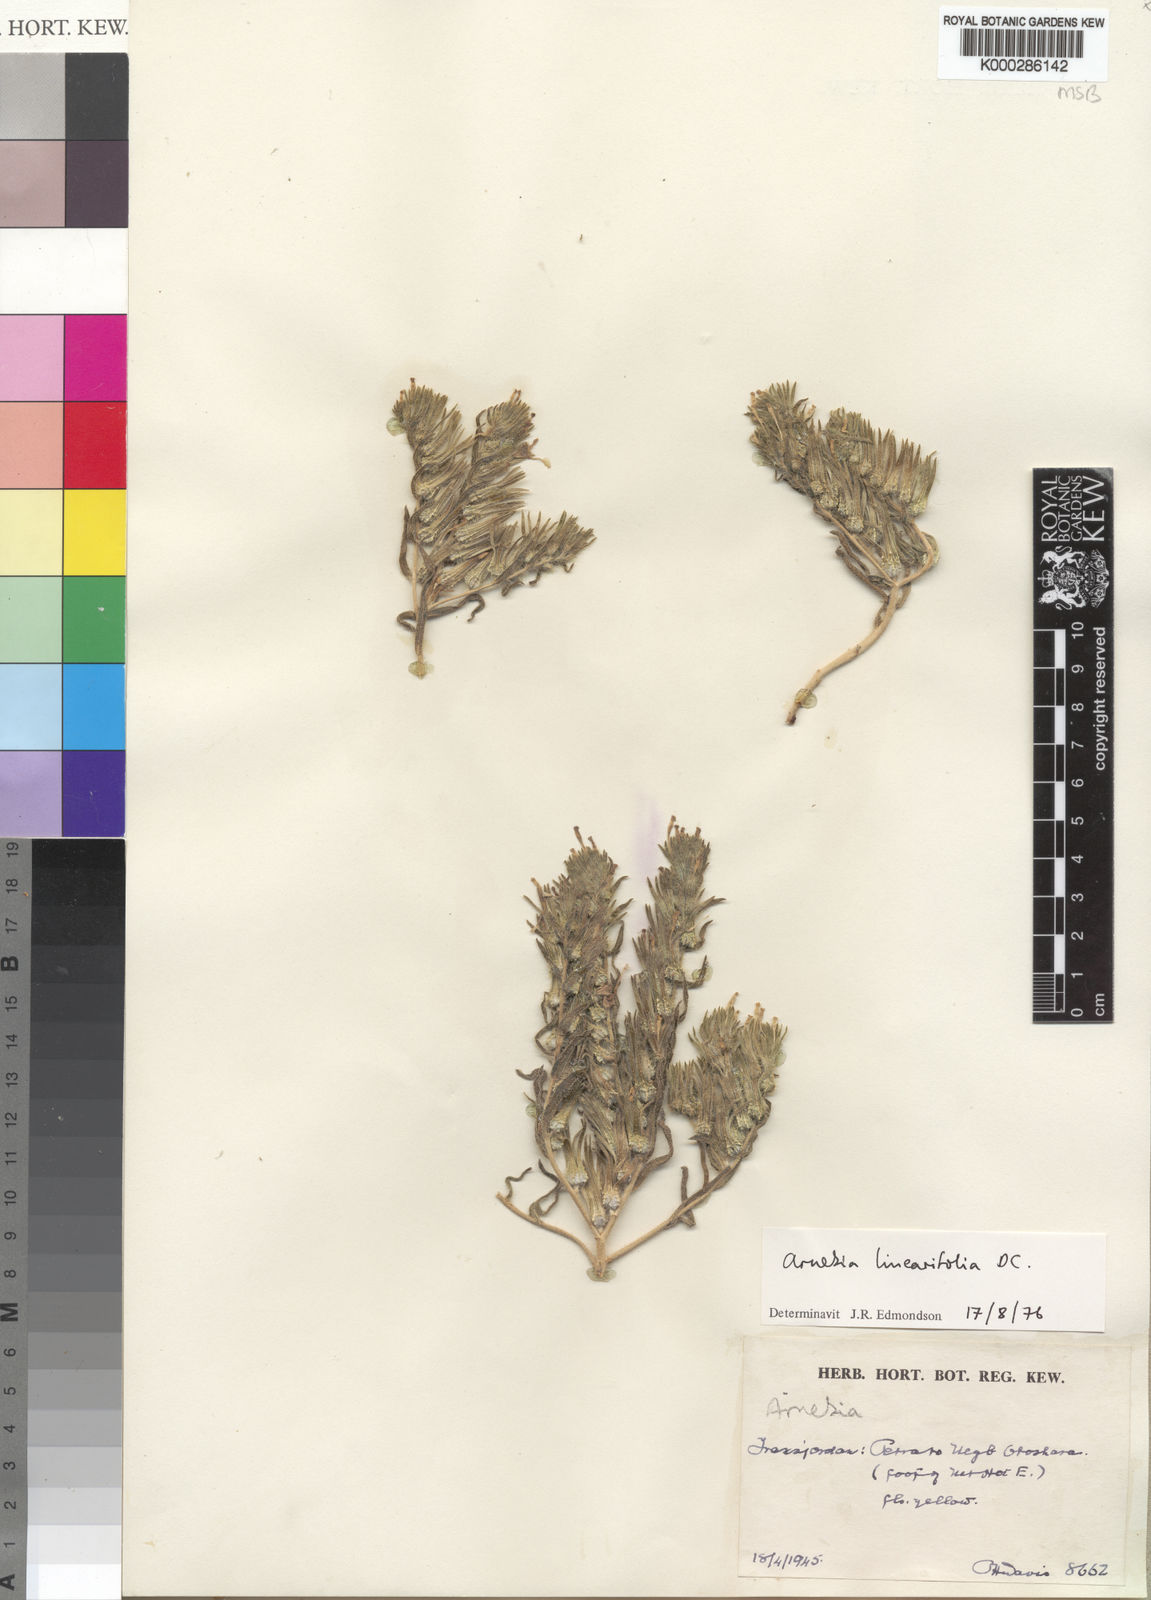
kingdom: Plantae
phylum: Tracheophyta
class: Magnoliopsida
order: Boraginales
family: Boraginaceae
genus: Arnebia
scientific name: Arnebia linearifolia
